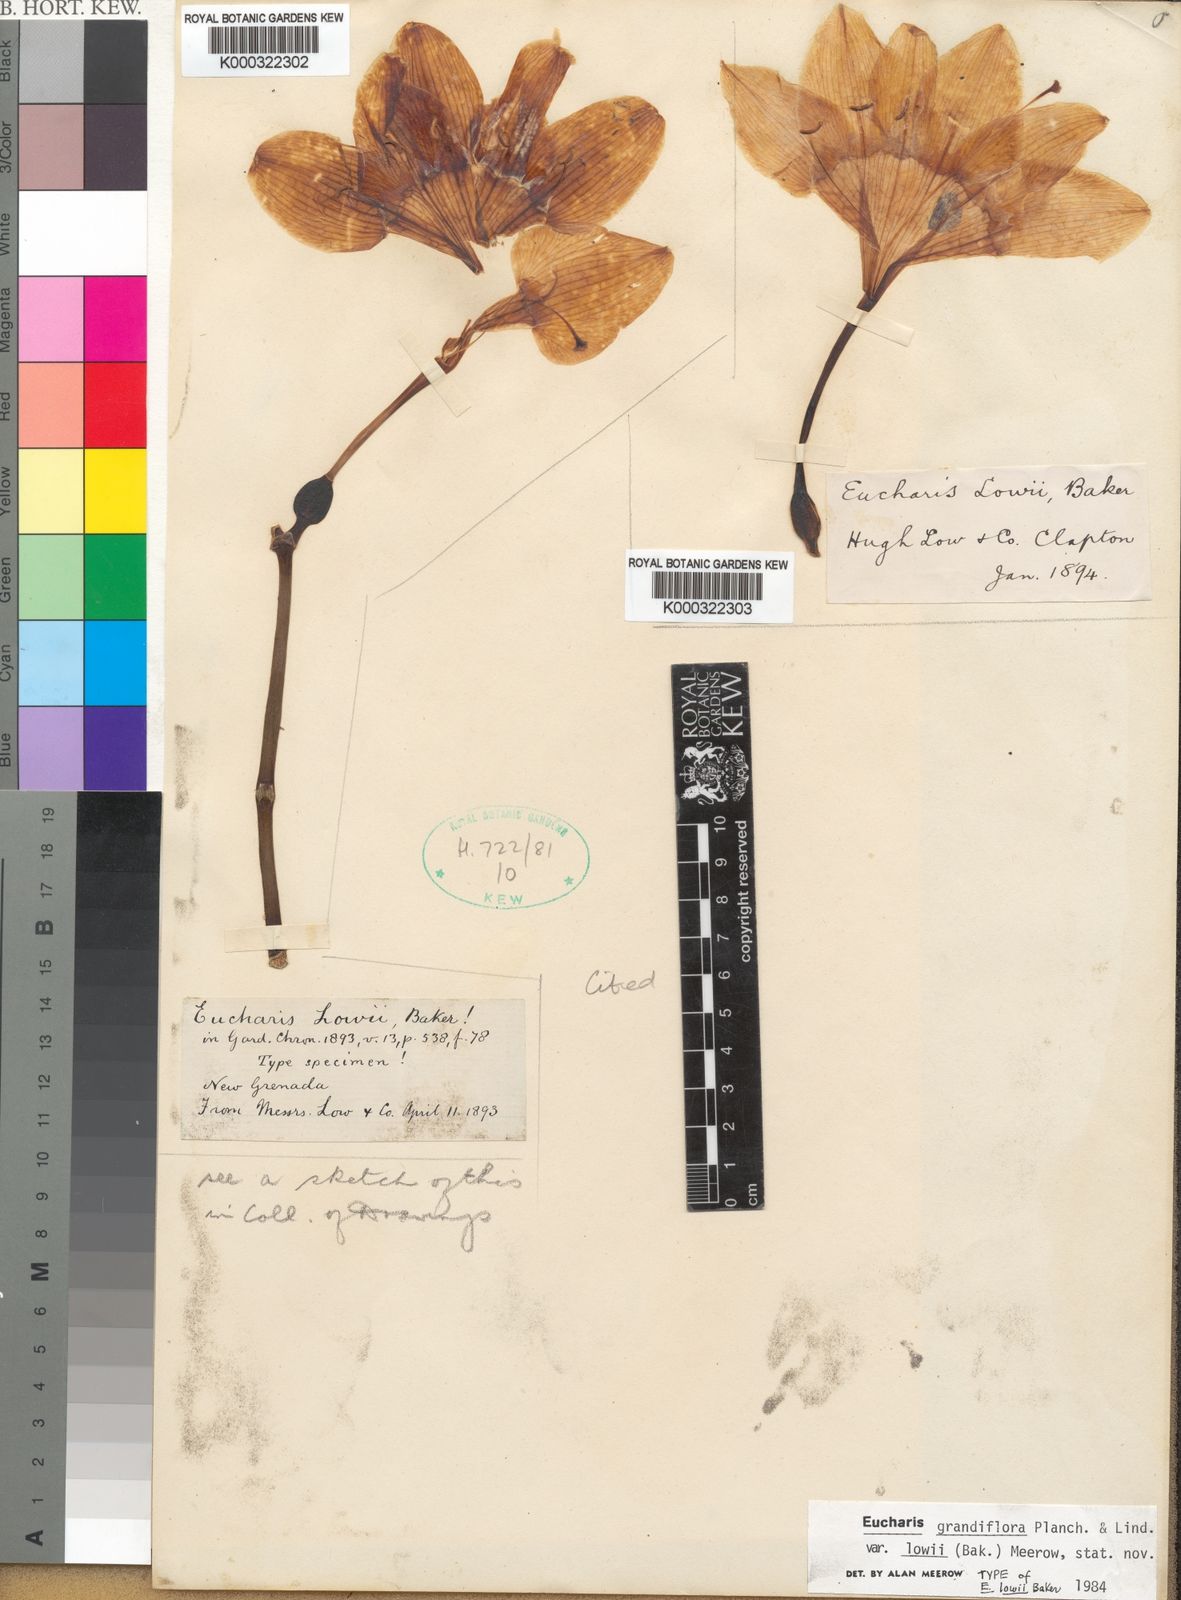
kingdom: Plantae
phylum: Tracheophyta
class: Liliopsida
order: Asparagales
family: Amaryllidaceae
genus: Urceolina
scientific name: Urceolina grandiflora
